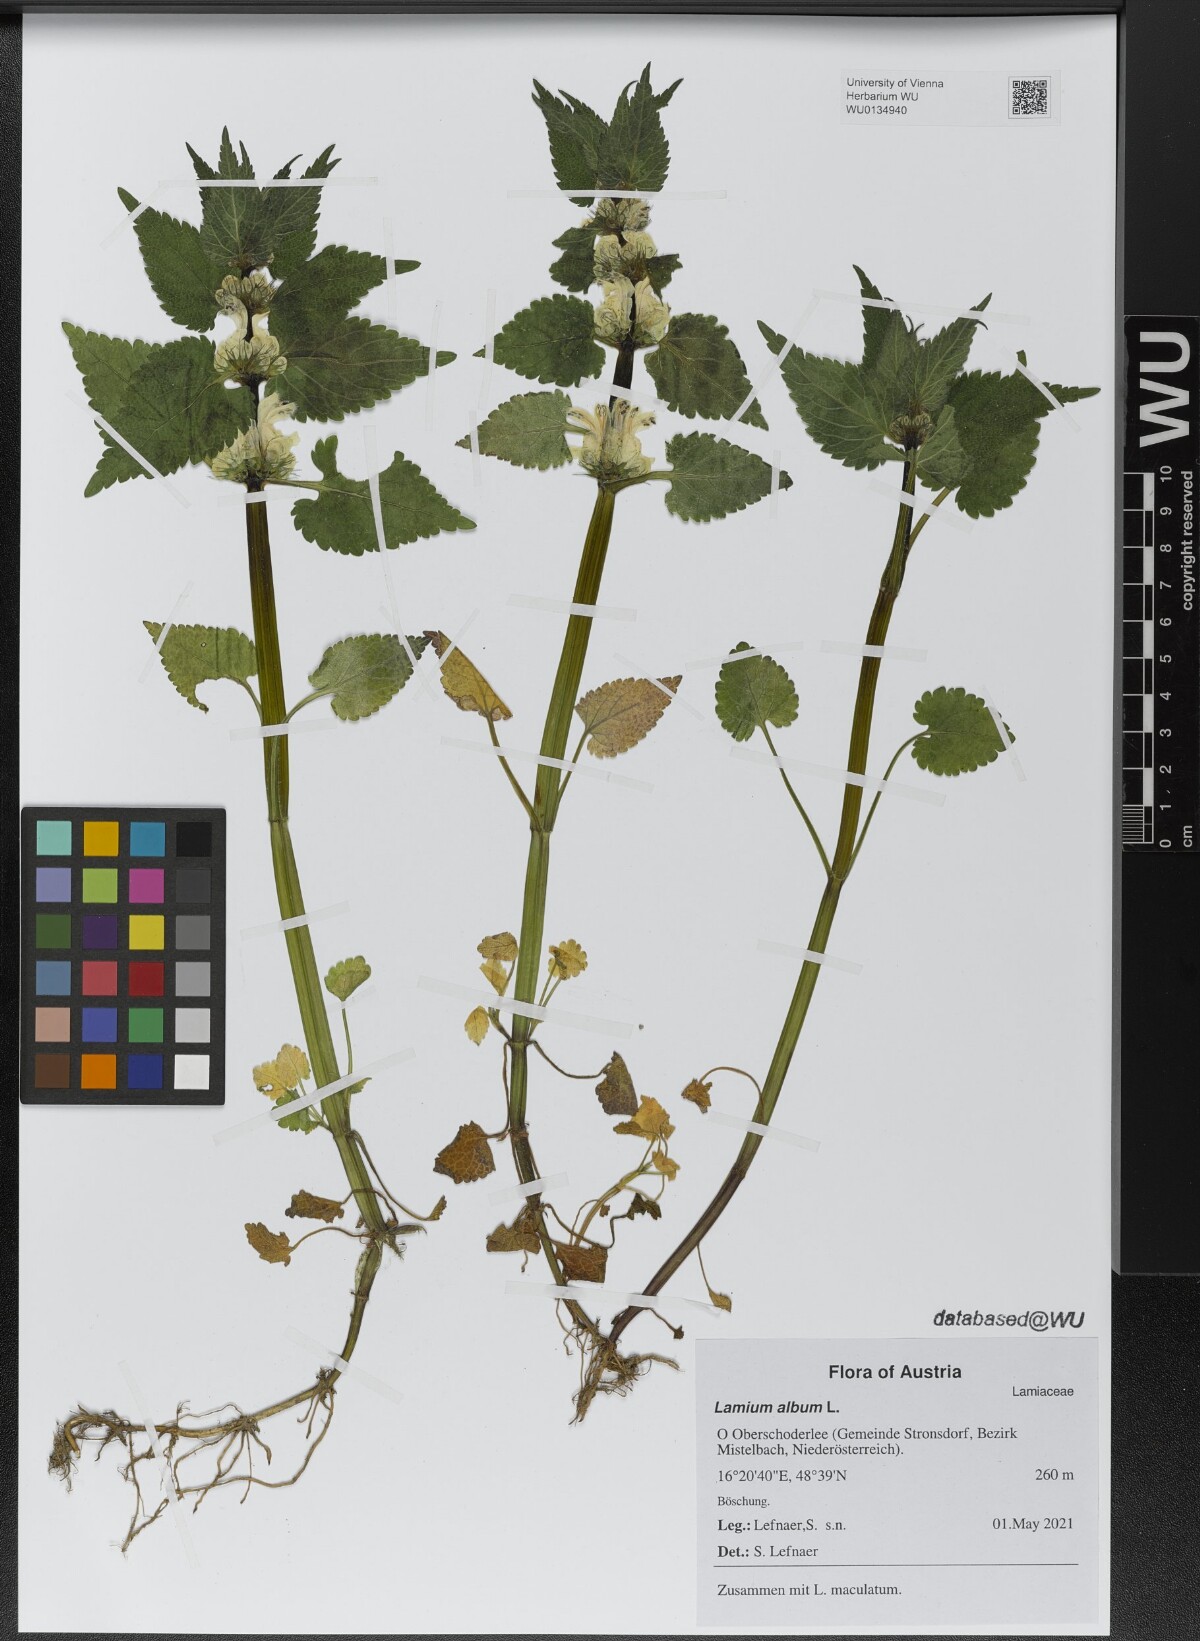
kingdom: Plantae
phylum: Tracheophyta
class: Magnoliopsida
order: Lamiales
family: Lamiaceae
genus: Lamium
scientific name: Lamium album
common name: White dead-nettle
